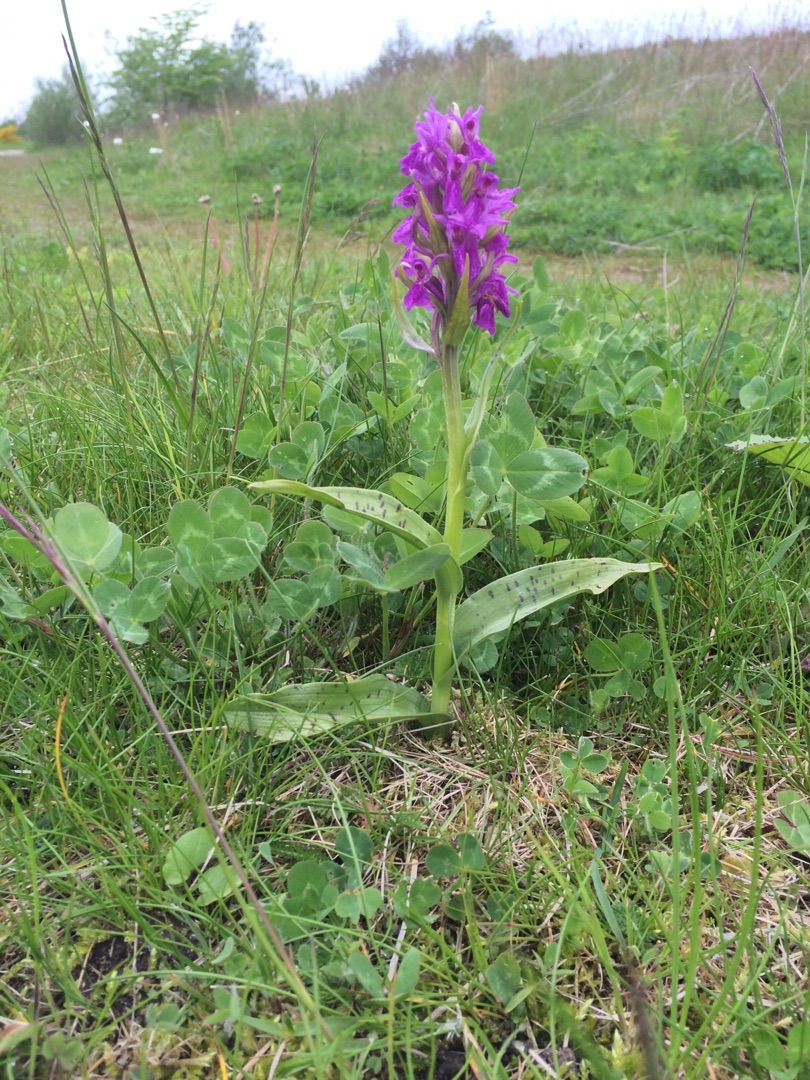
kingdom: Plantae
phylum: Tracheophyta
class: Liliopsida
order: Asparagales
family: Orchidaceae
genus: Dactylorhiza
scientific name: Dactylorhiza majalis
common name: Maj-gøgeurt
